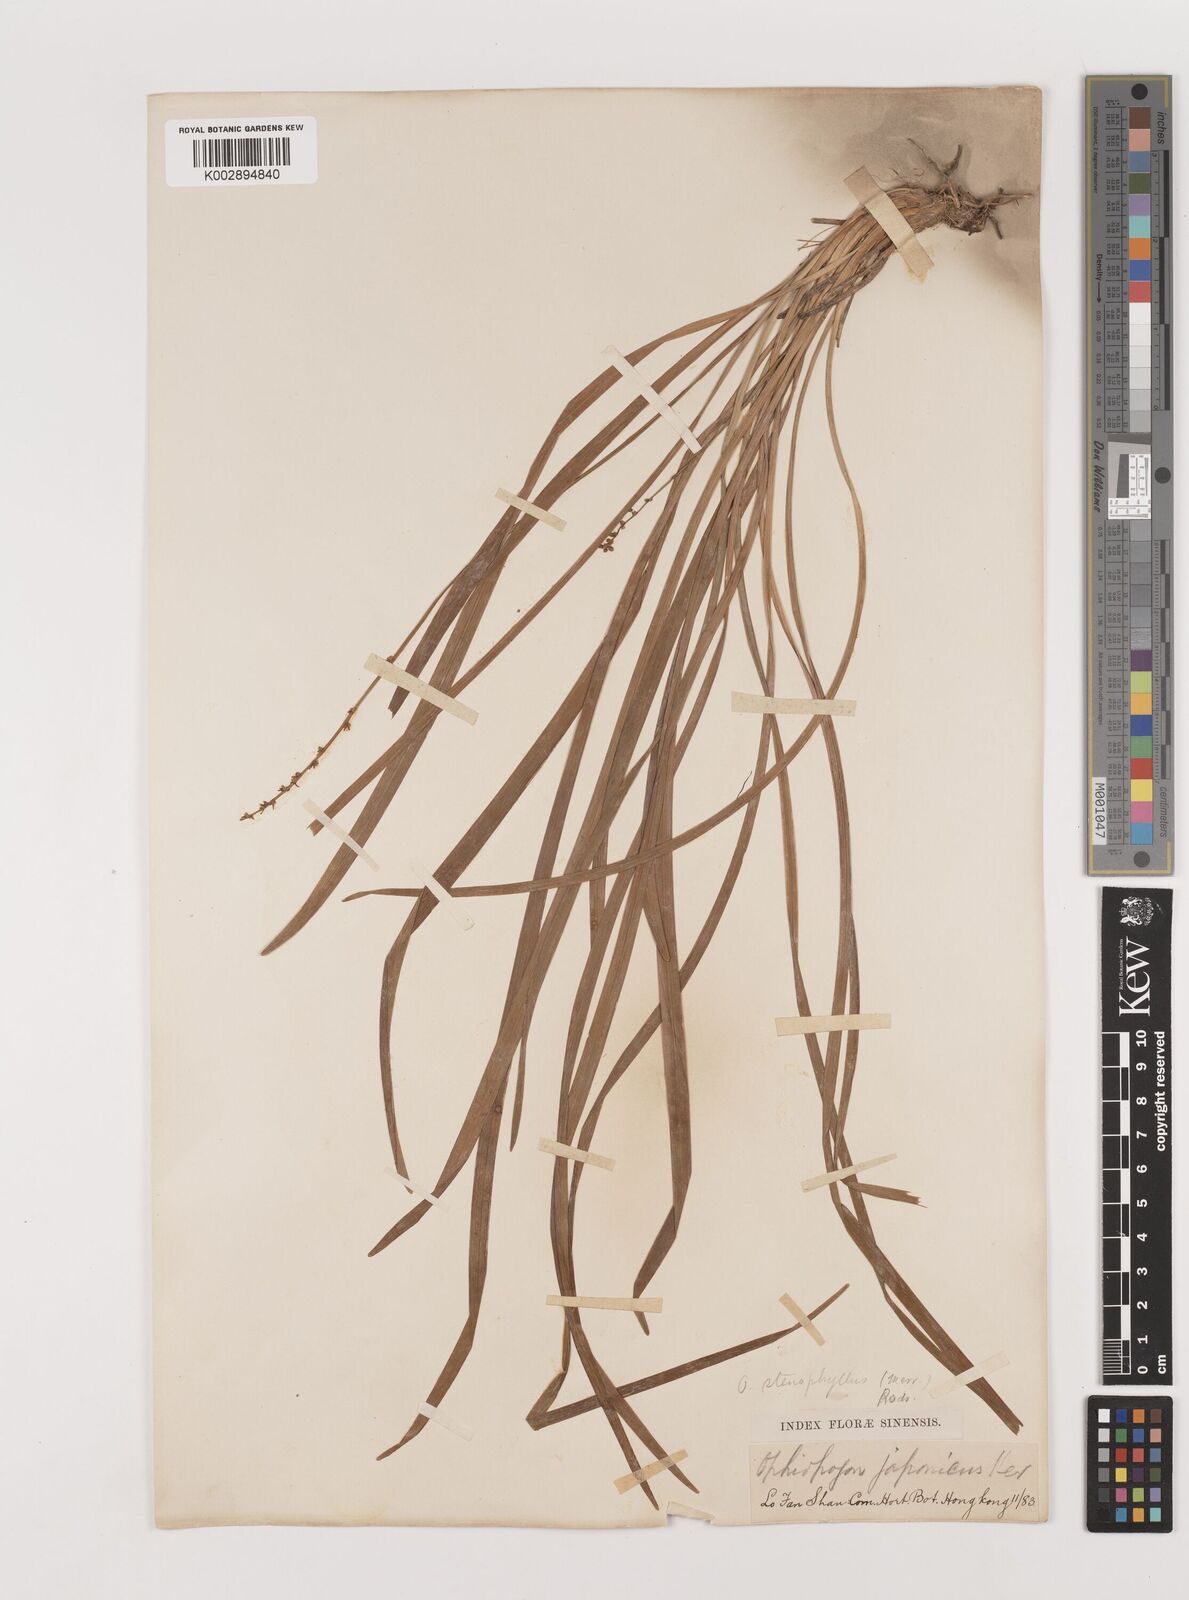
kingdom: Plantae
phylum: Tracheophyta
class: Liliopsida
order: Asparagales
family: Asparagaceae
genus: Ophiopogon
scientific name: Ophiopogon stenophyllus
